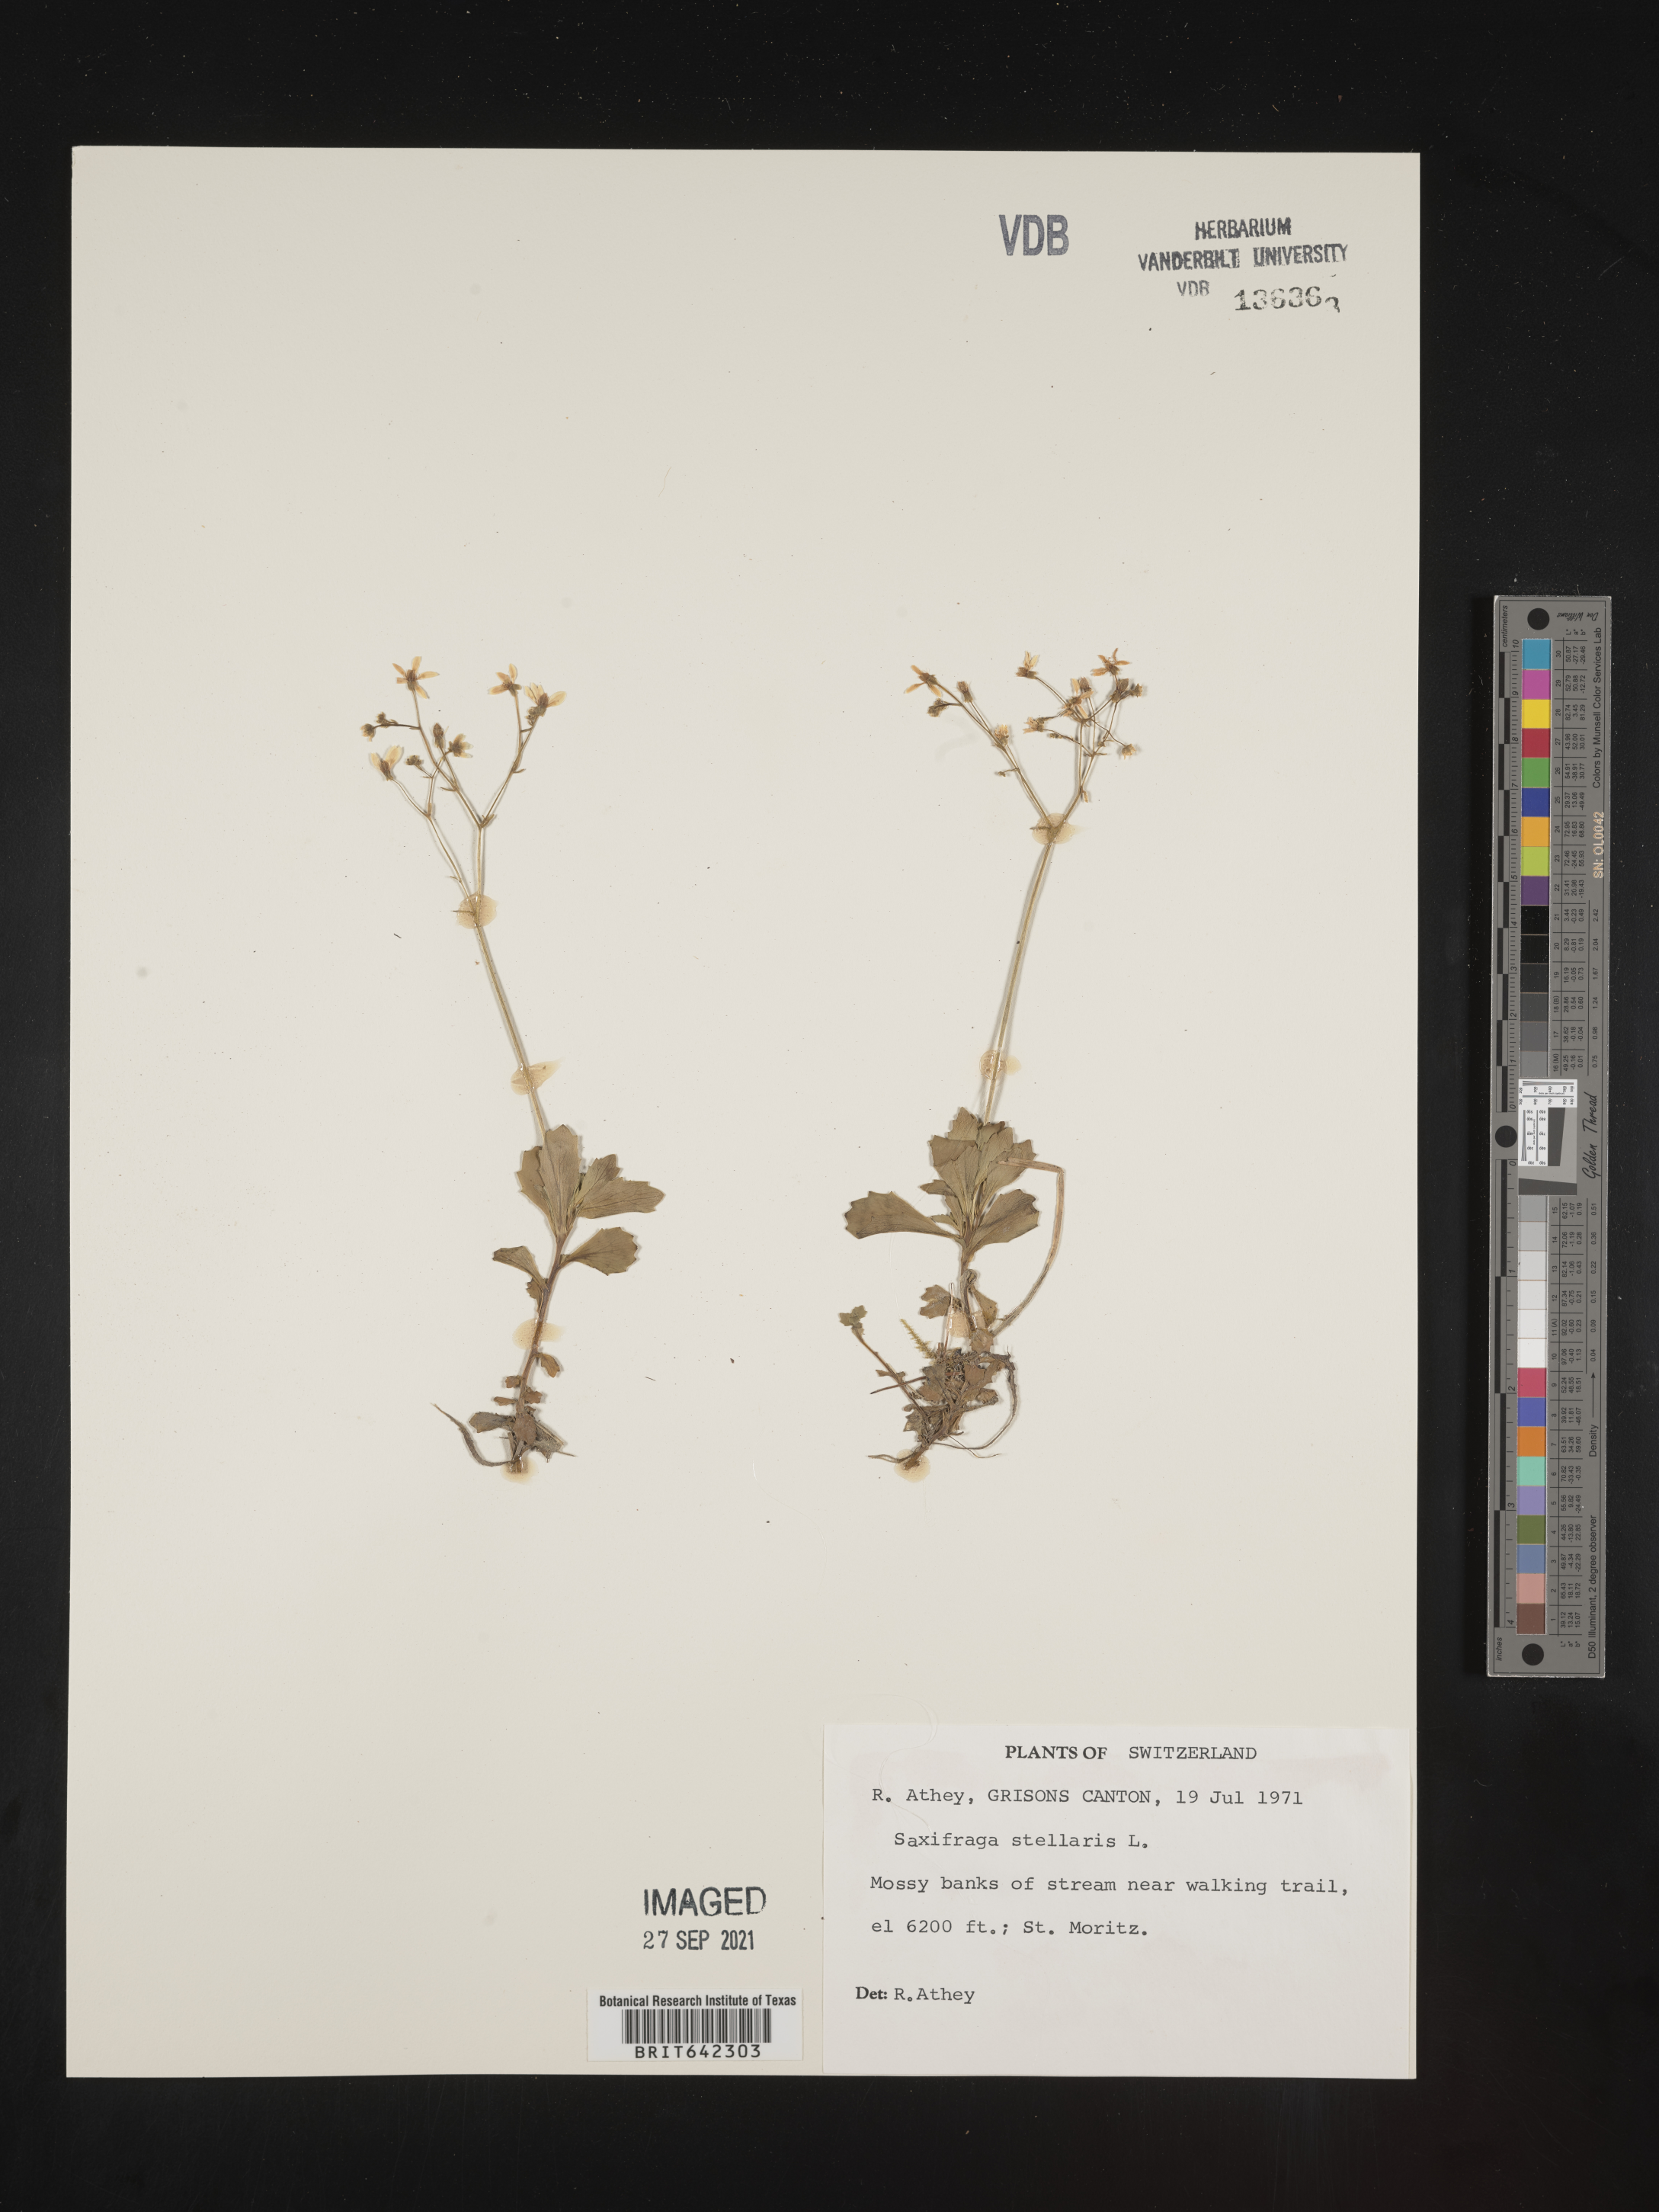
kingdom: Plantae
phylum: Tracheophyta
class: Magnoliopsida
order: Saxifragales
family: Saxifragaceae
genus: Saxifraga
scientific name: Saxifraga
